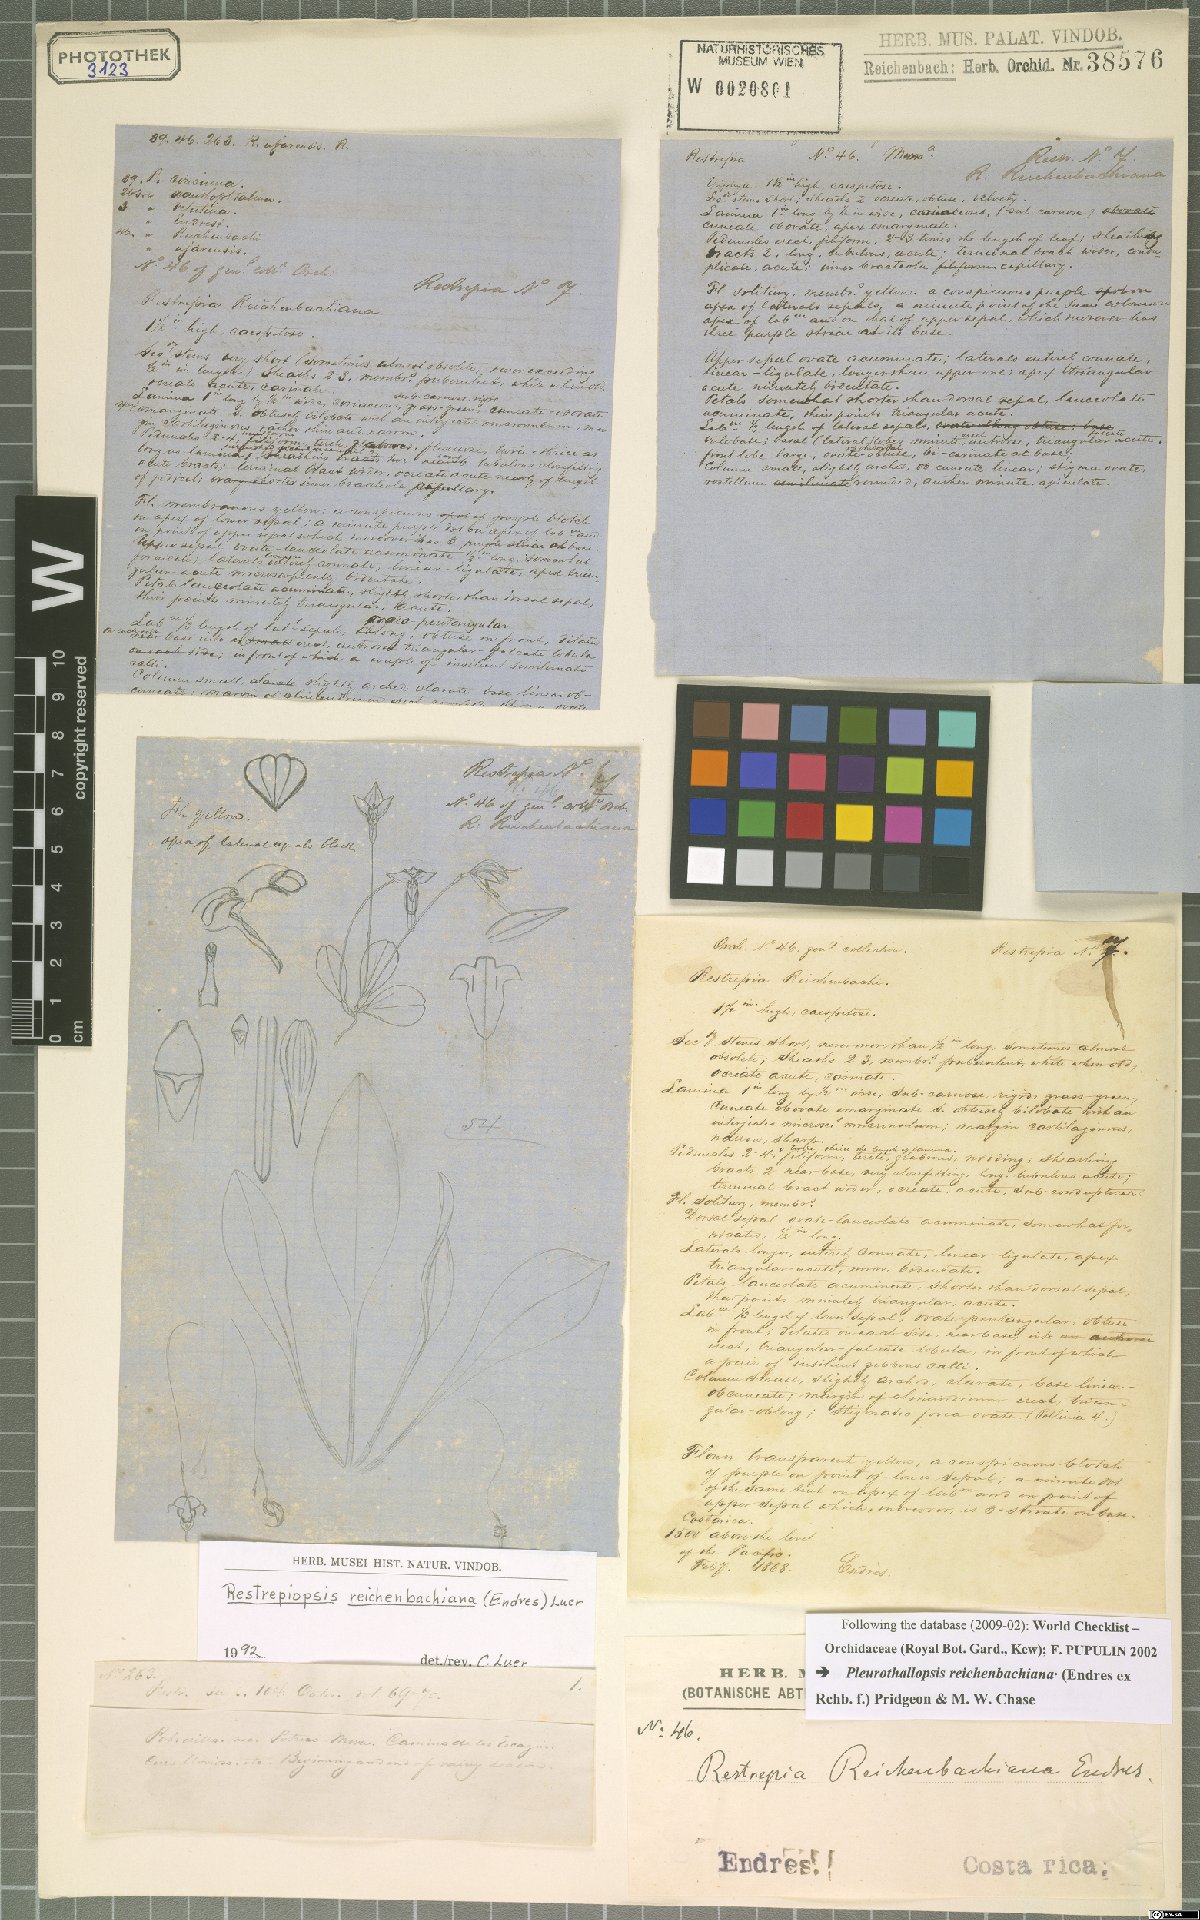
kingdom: Plantae
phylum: Tracheophyta
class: Liliopsida
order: Asparagales
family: Orchidaceae
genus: Pleurothallopsis
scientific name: Pleurothallopsis reichenbachiana
